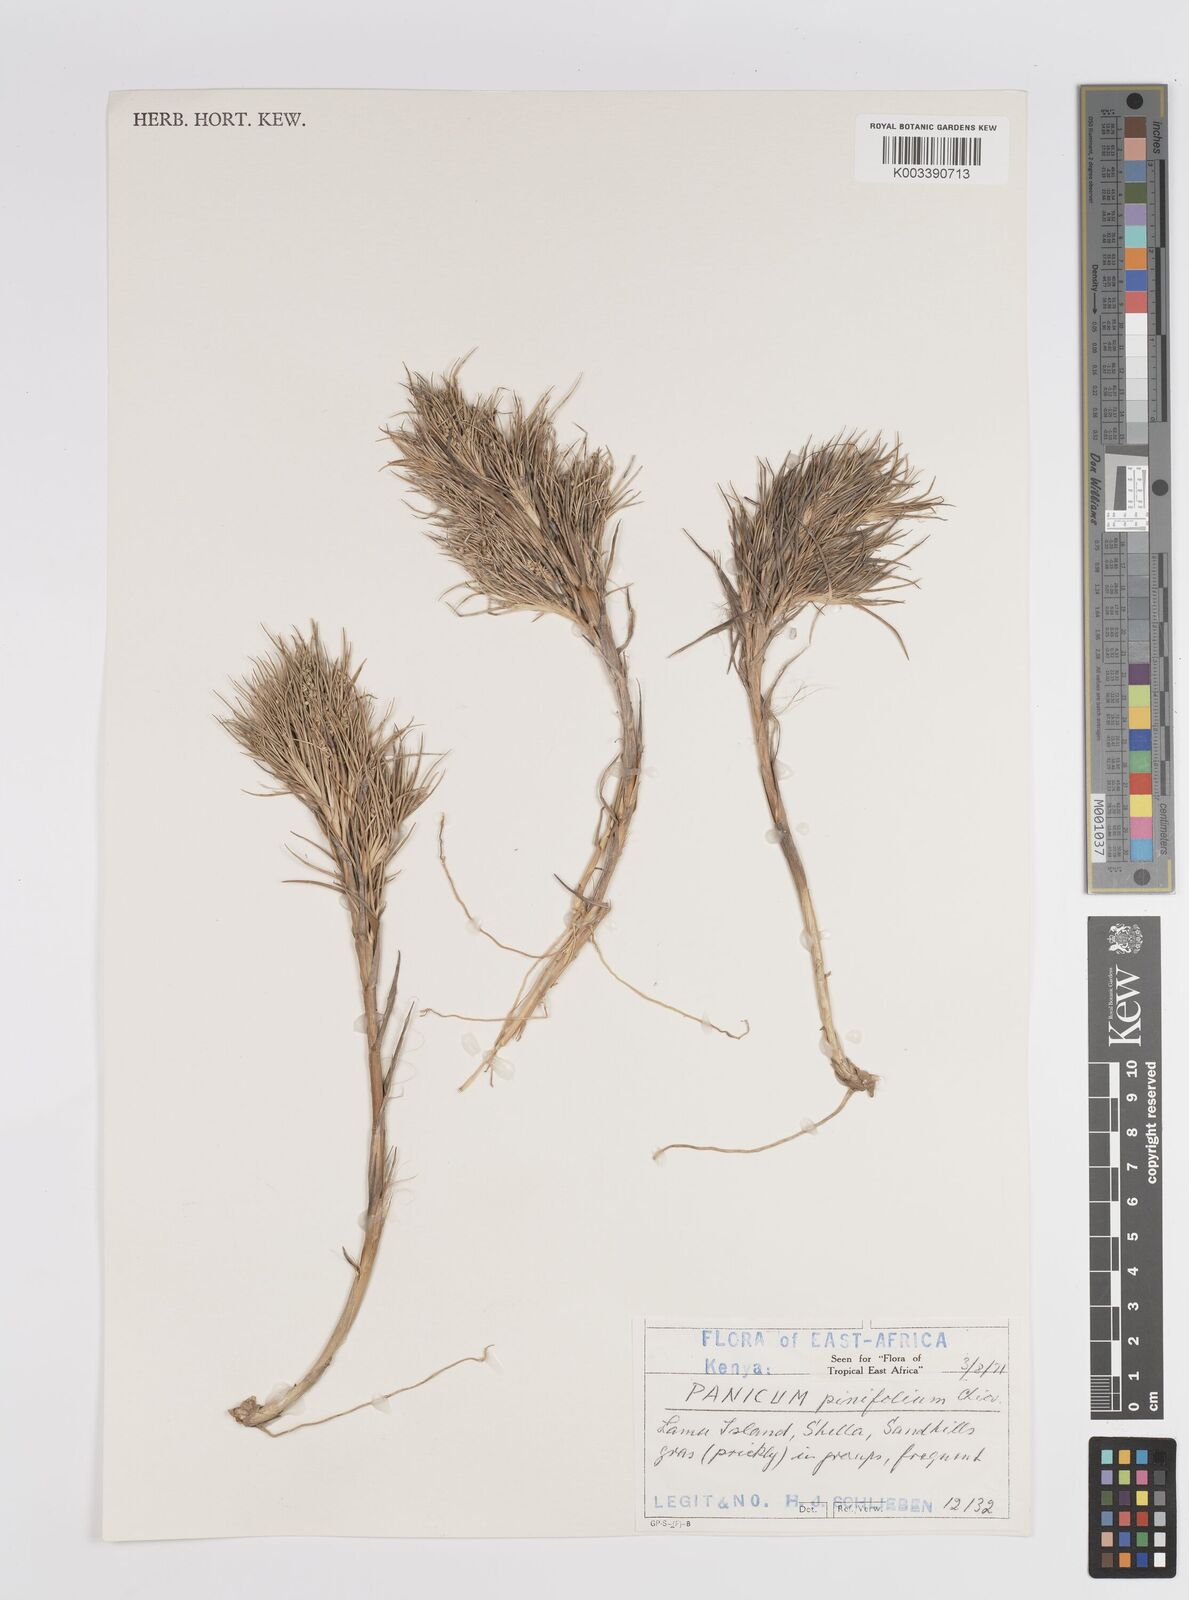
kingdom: Plantae
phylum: Tracheophyta
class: Liliopsida
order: Poales
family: Poaceae
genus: Panicum
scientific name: Panicum pinifolium
